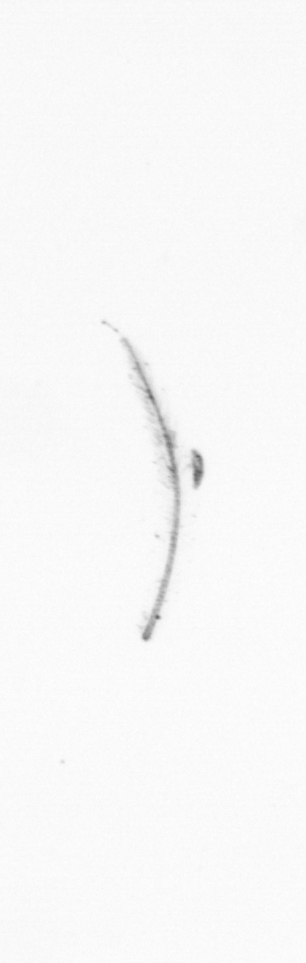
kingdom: Chromista
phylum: Ochrophyta
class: Bacillariophyceae
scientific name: Bacillariophyceae
